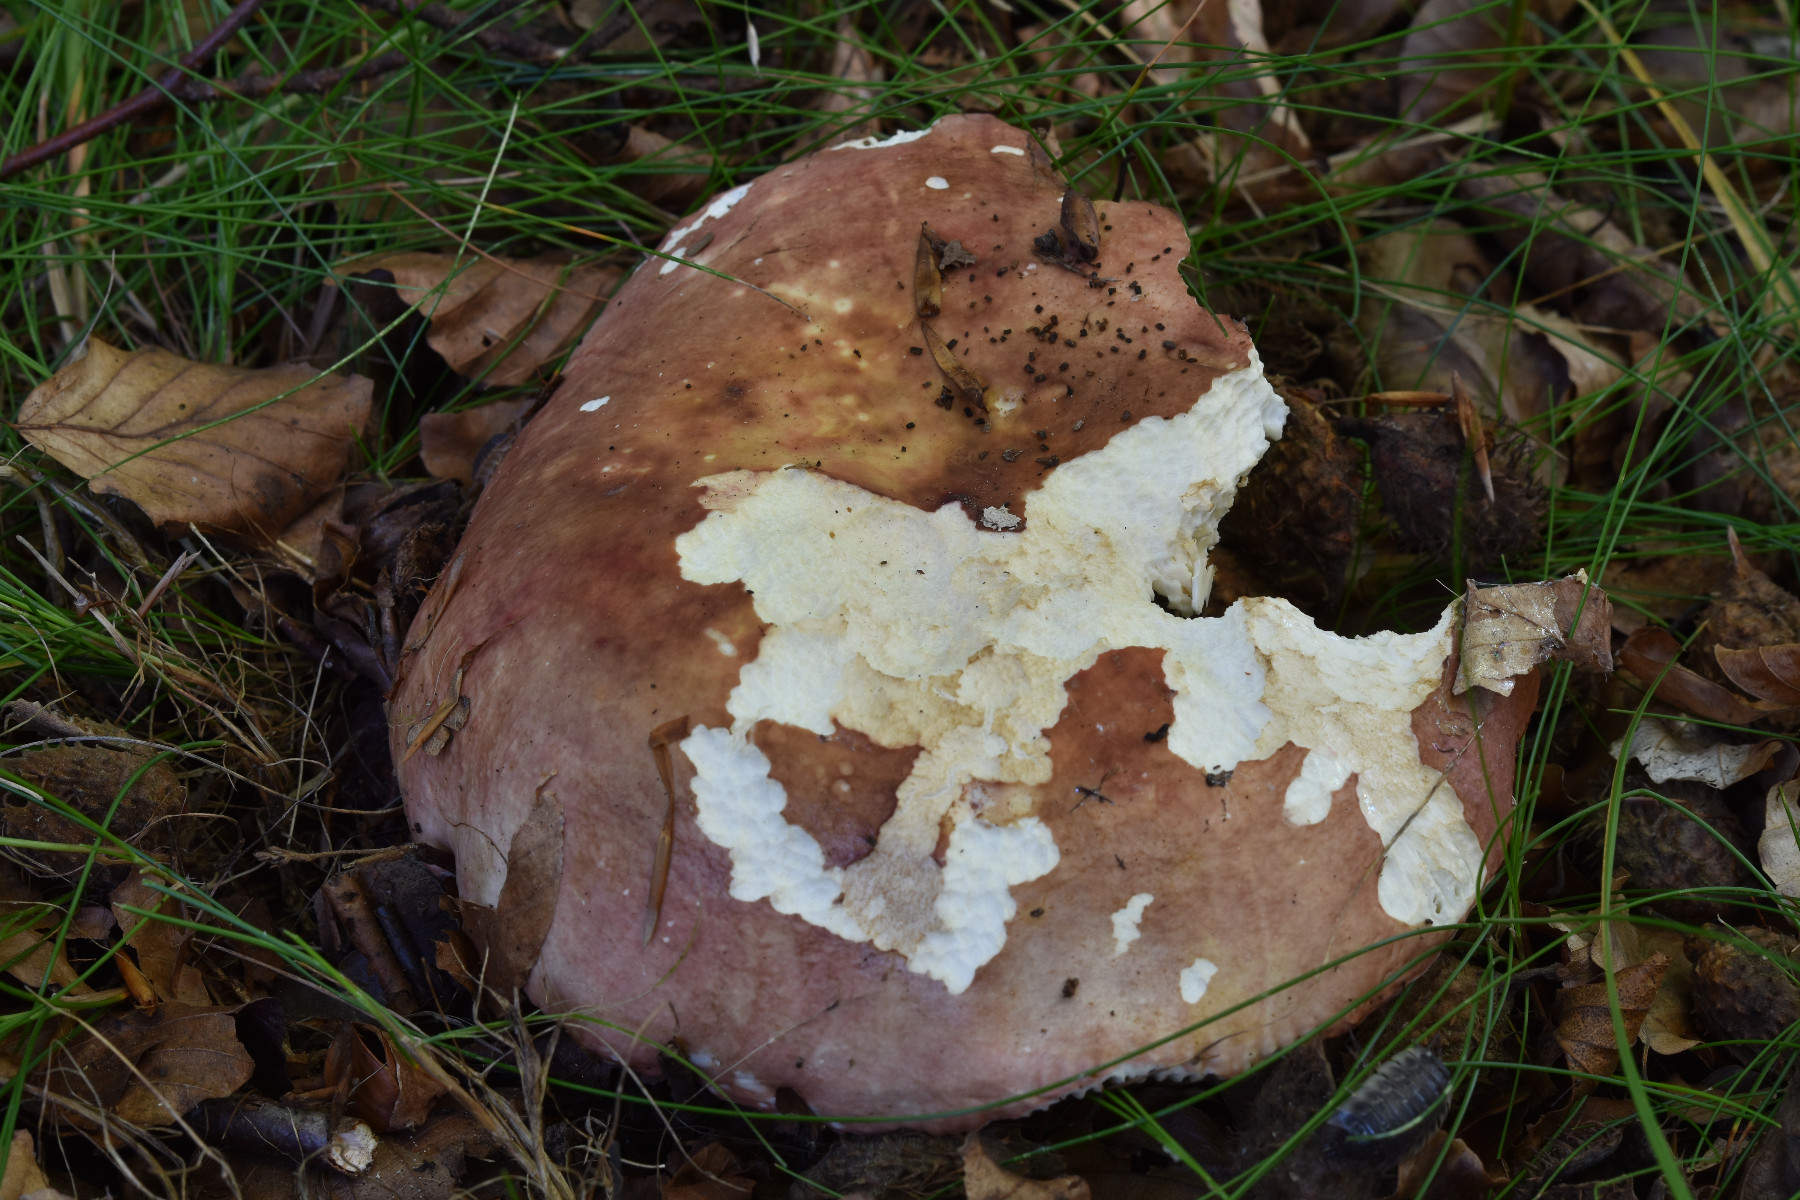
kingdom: Fungi
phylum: Basidiomycota
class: Agaricomycetes
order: Russulales
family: Russulaceae
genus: Russula
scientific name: Russula faginea
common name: bøge-skørhat
